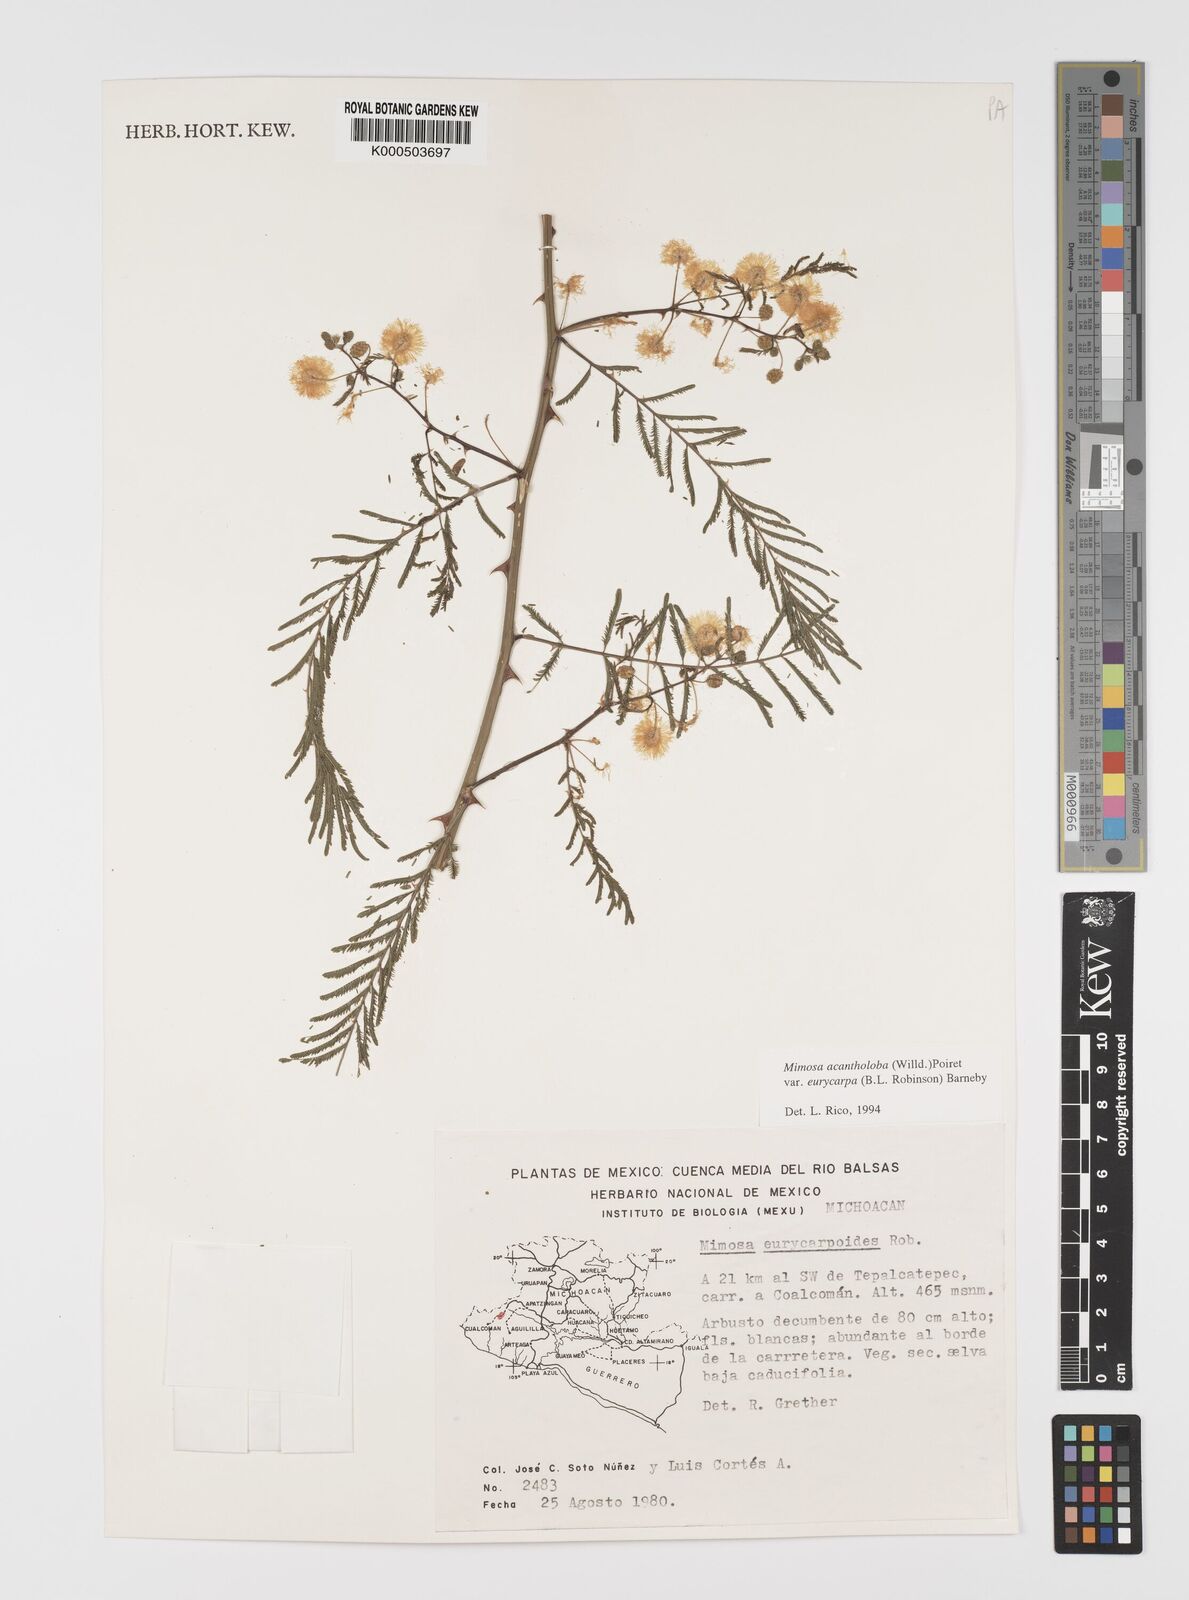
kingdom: Plantae
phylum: Tracheophyta
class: Magnoliopsida
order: Fabales
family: Fabaceae
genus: Mimosa
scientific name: Mimosa acantholoba
